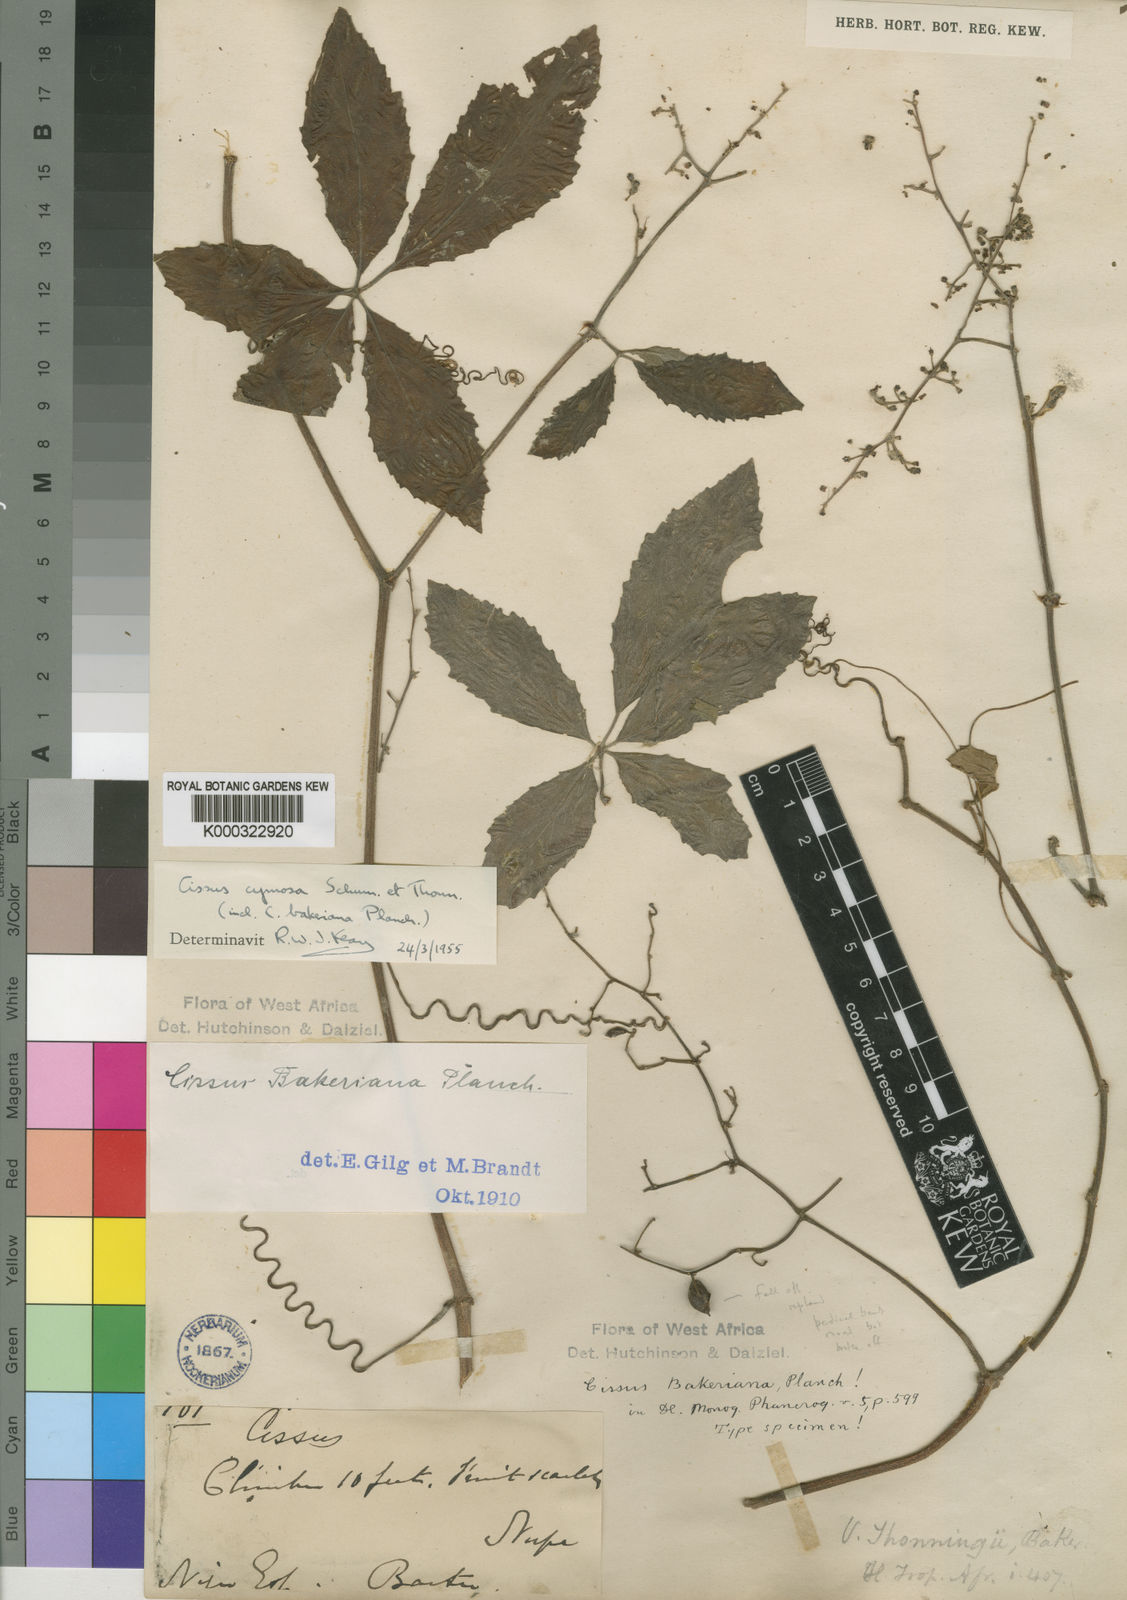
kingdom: Plantae
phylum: Tracheophyta
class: Magnoliopsida
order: Vitales
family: Vitaceae
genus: Cyphostemma
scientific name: Cyphostemma cymosum
